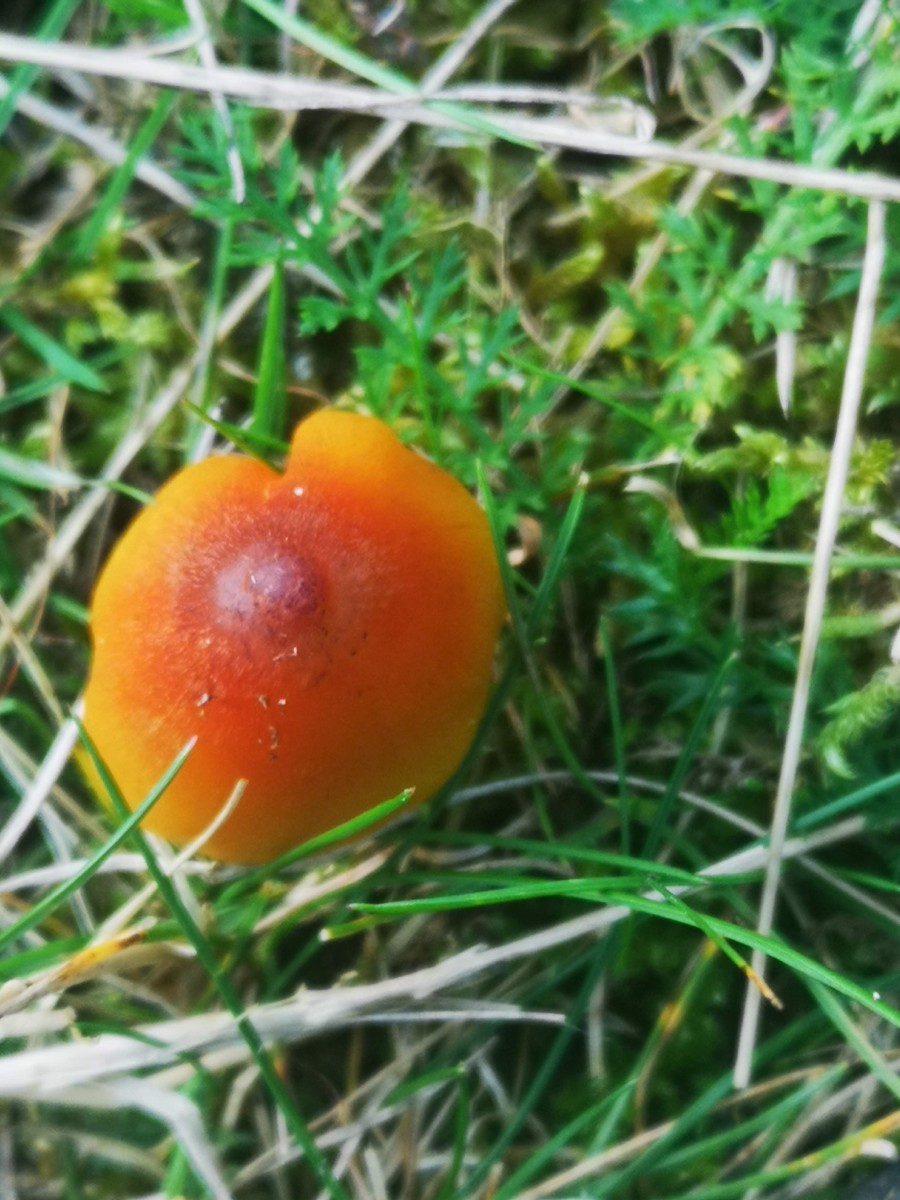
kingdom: Fungi
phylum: Basidiomycota
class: Agaricomycetes
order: Agaricales
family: Hygrophoraceae
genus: Hygrocybe
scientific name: Hygrocybe conica
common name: kegle-vokshat
